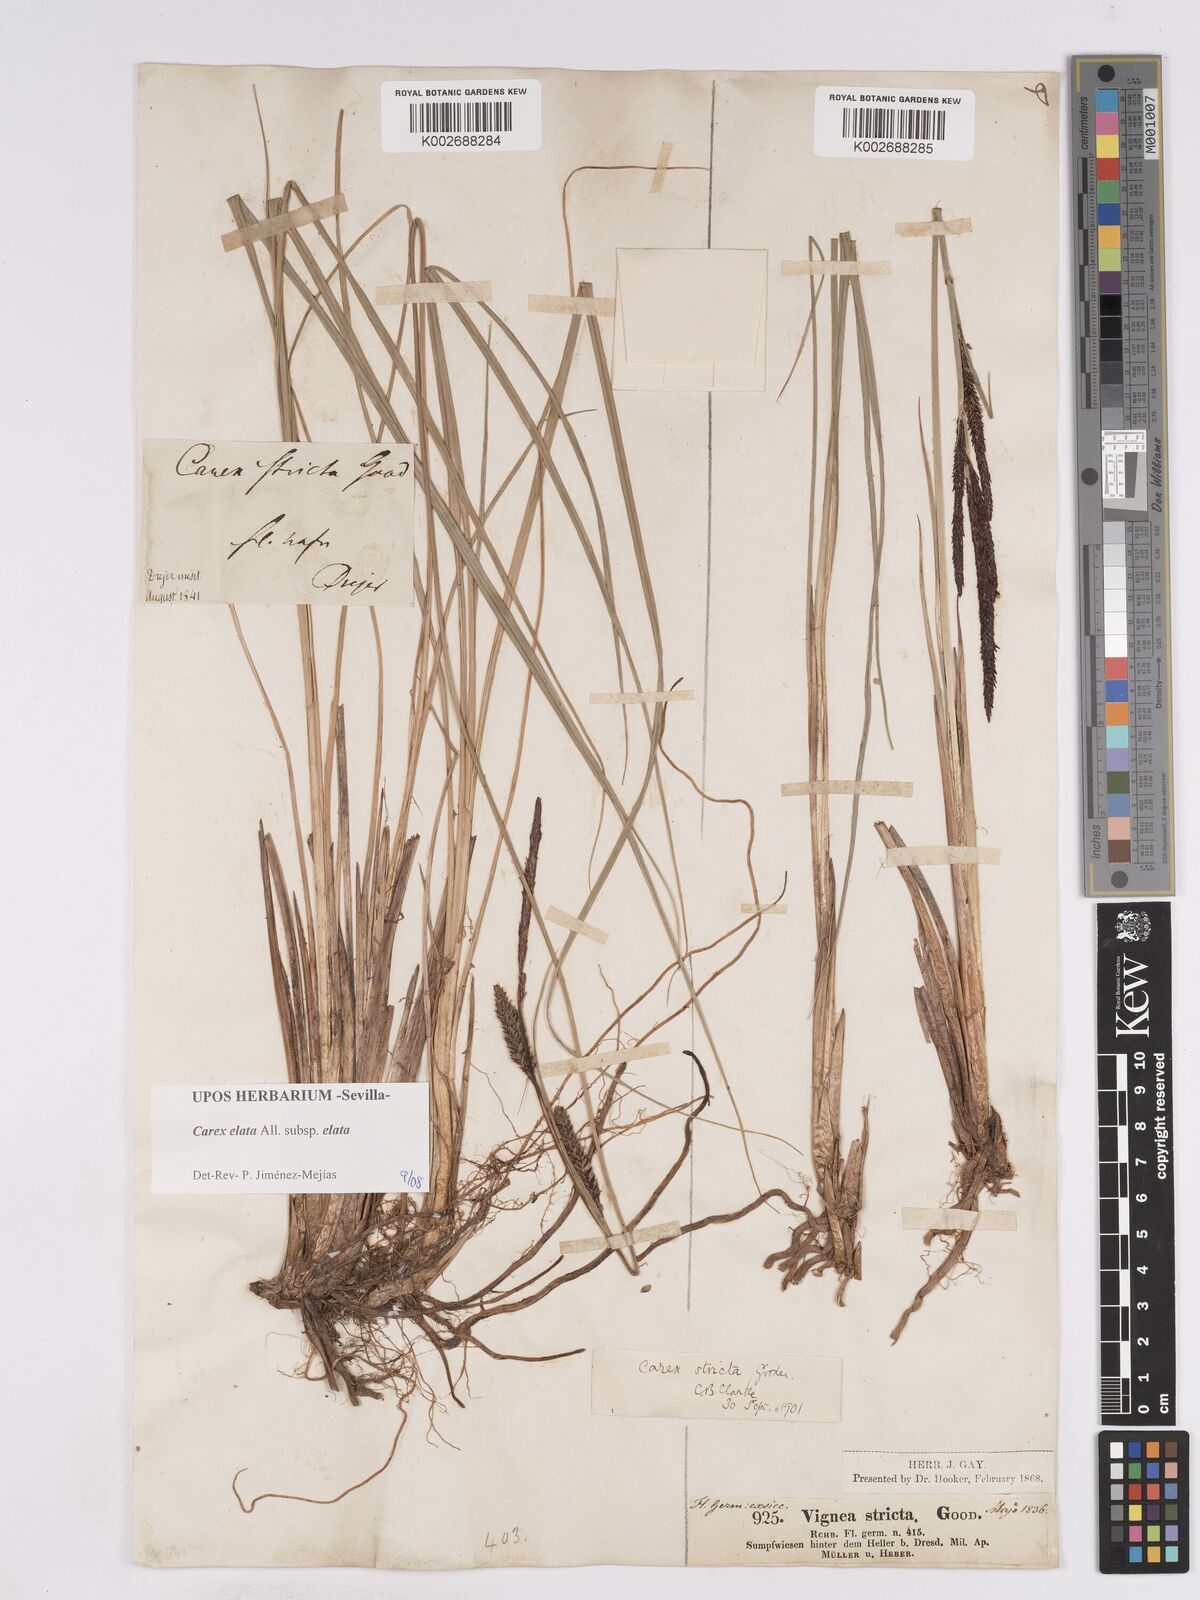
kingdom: Plantae
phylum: Tracheophyta
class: Liliopsida
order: Poales
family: Cyperaceae
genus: Carex
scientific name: Carex elata
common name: Tufted sedge
